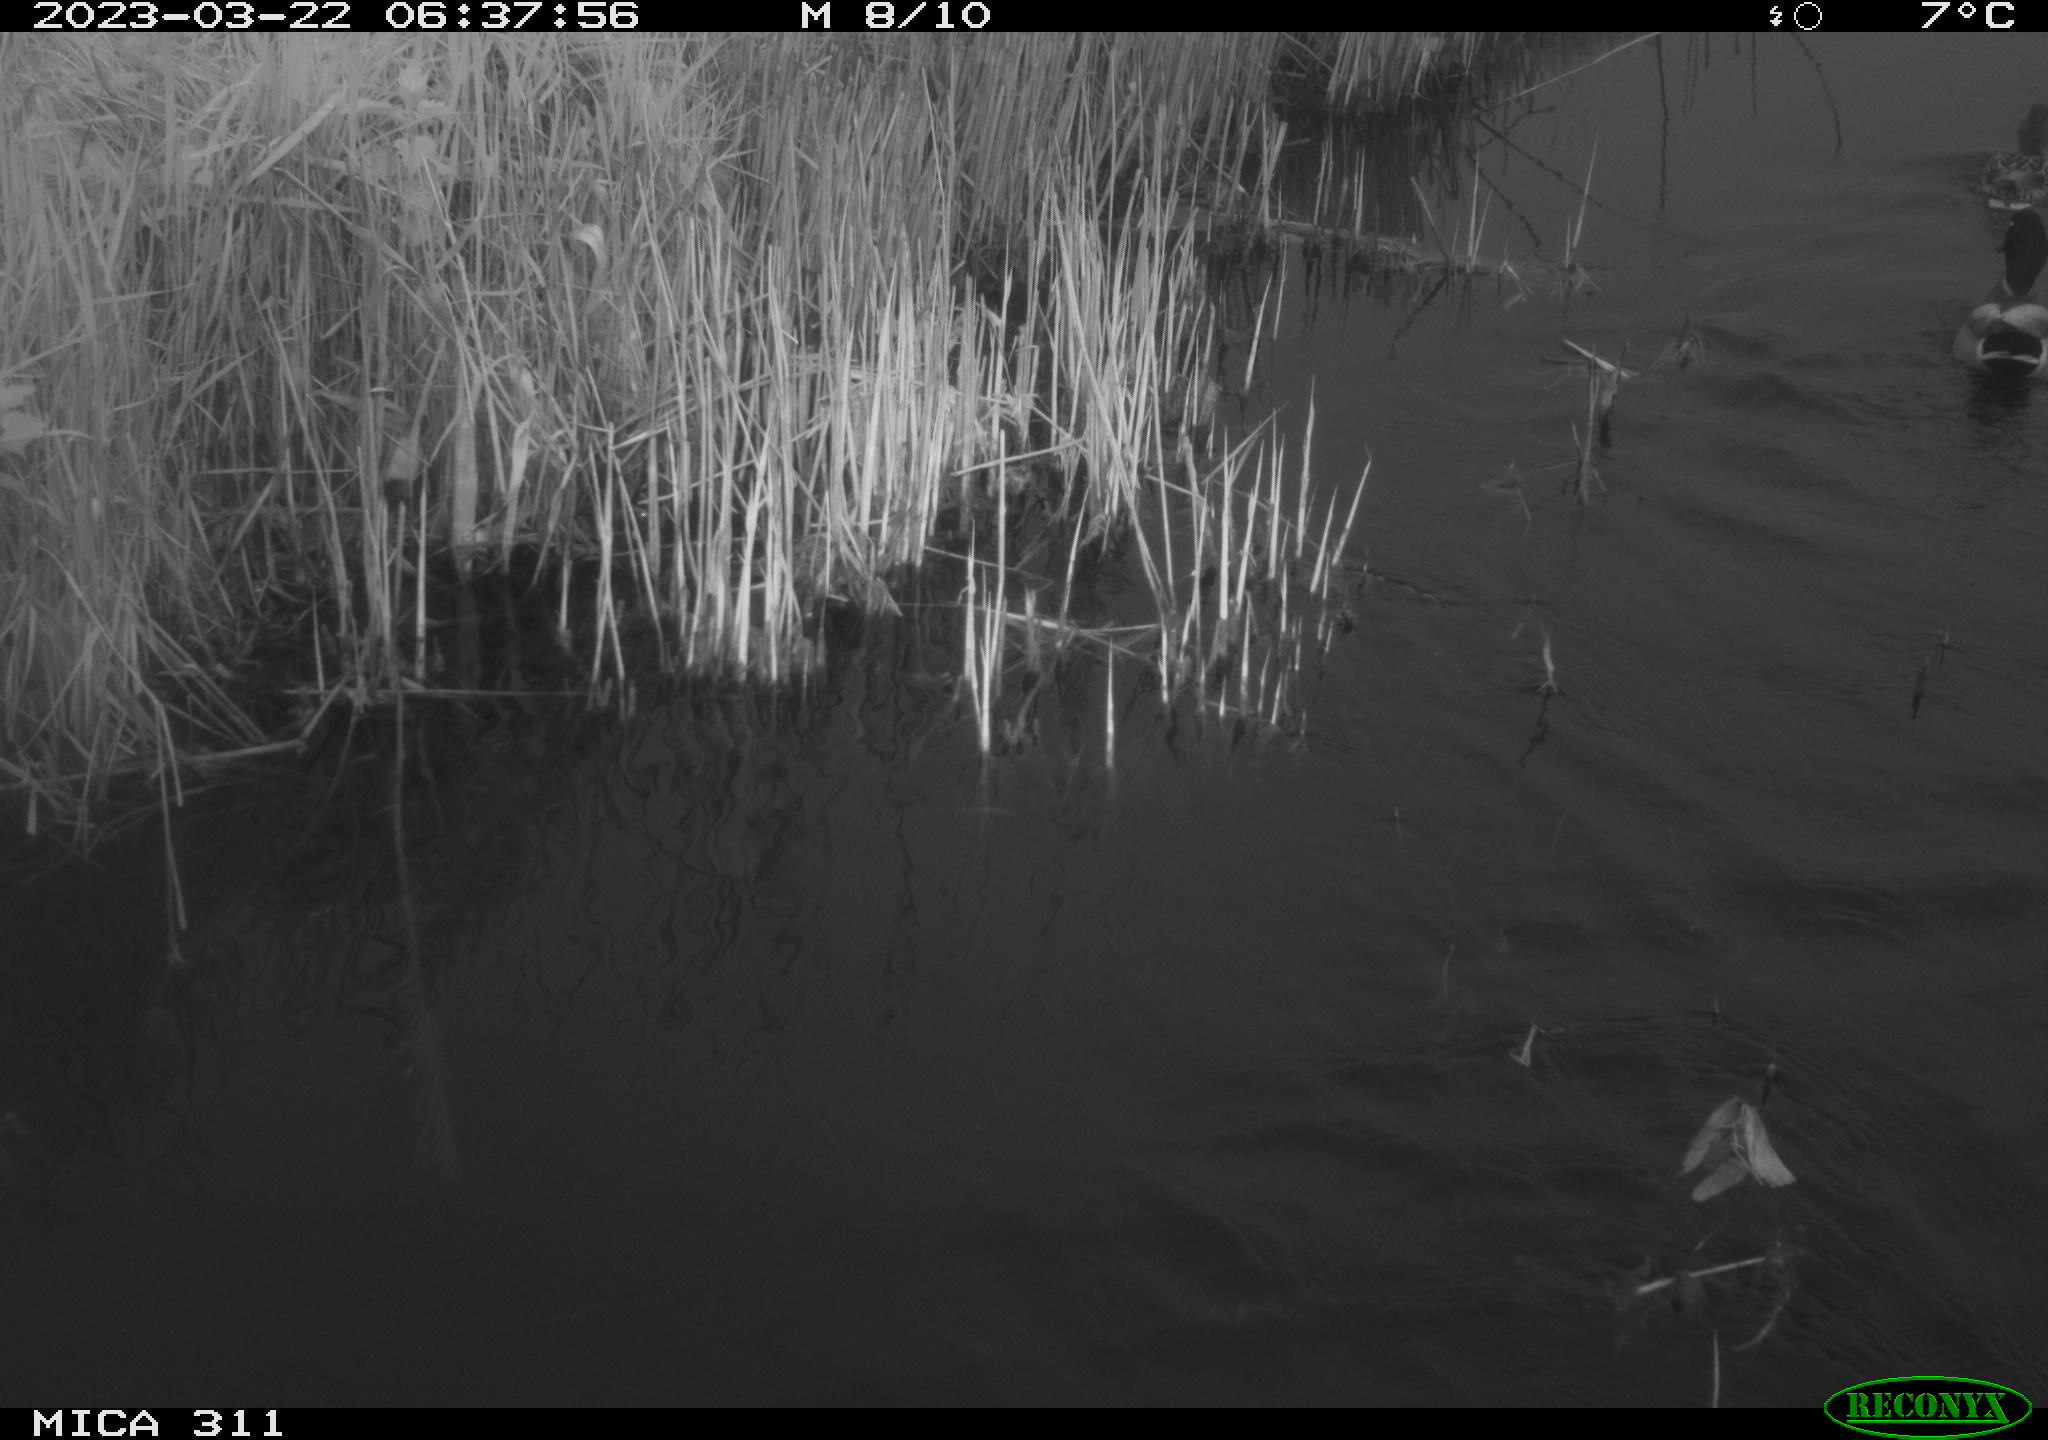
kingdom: Animalia
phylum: Chordata
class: Aves
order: Anseriformes
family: Anatidae
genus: Anas
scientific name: Anas
